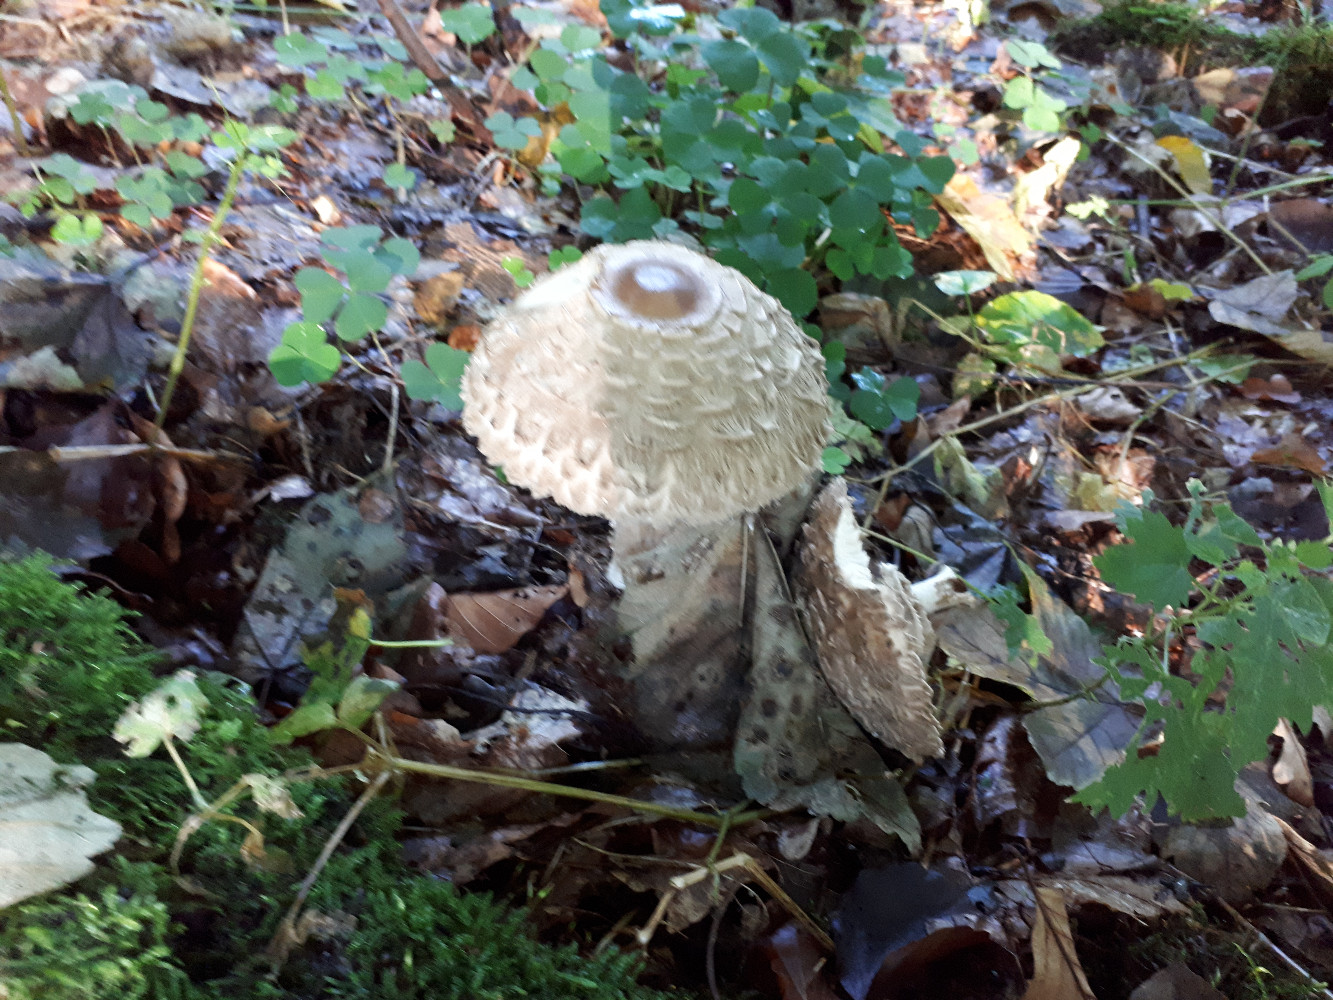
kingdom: Fungi
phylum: Basidiomycota
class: Agaricomycetes
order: Agaricales
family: Agaricaceae
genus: Chlorophyllum
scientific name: Chlorophyllum olivieri
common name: almindelig rabarberhat
